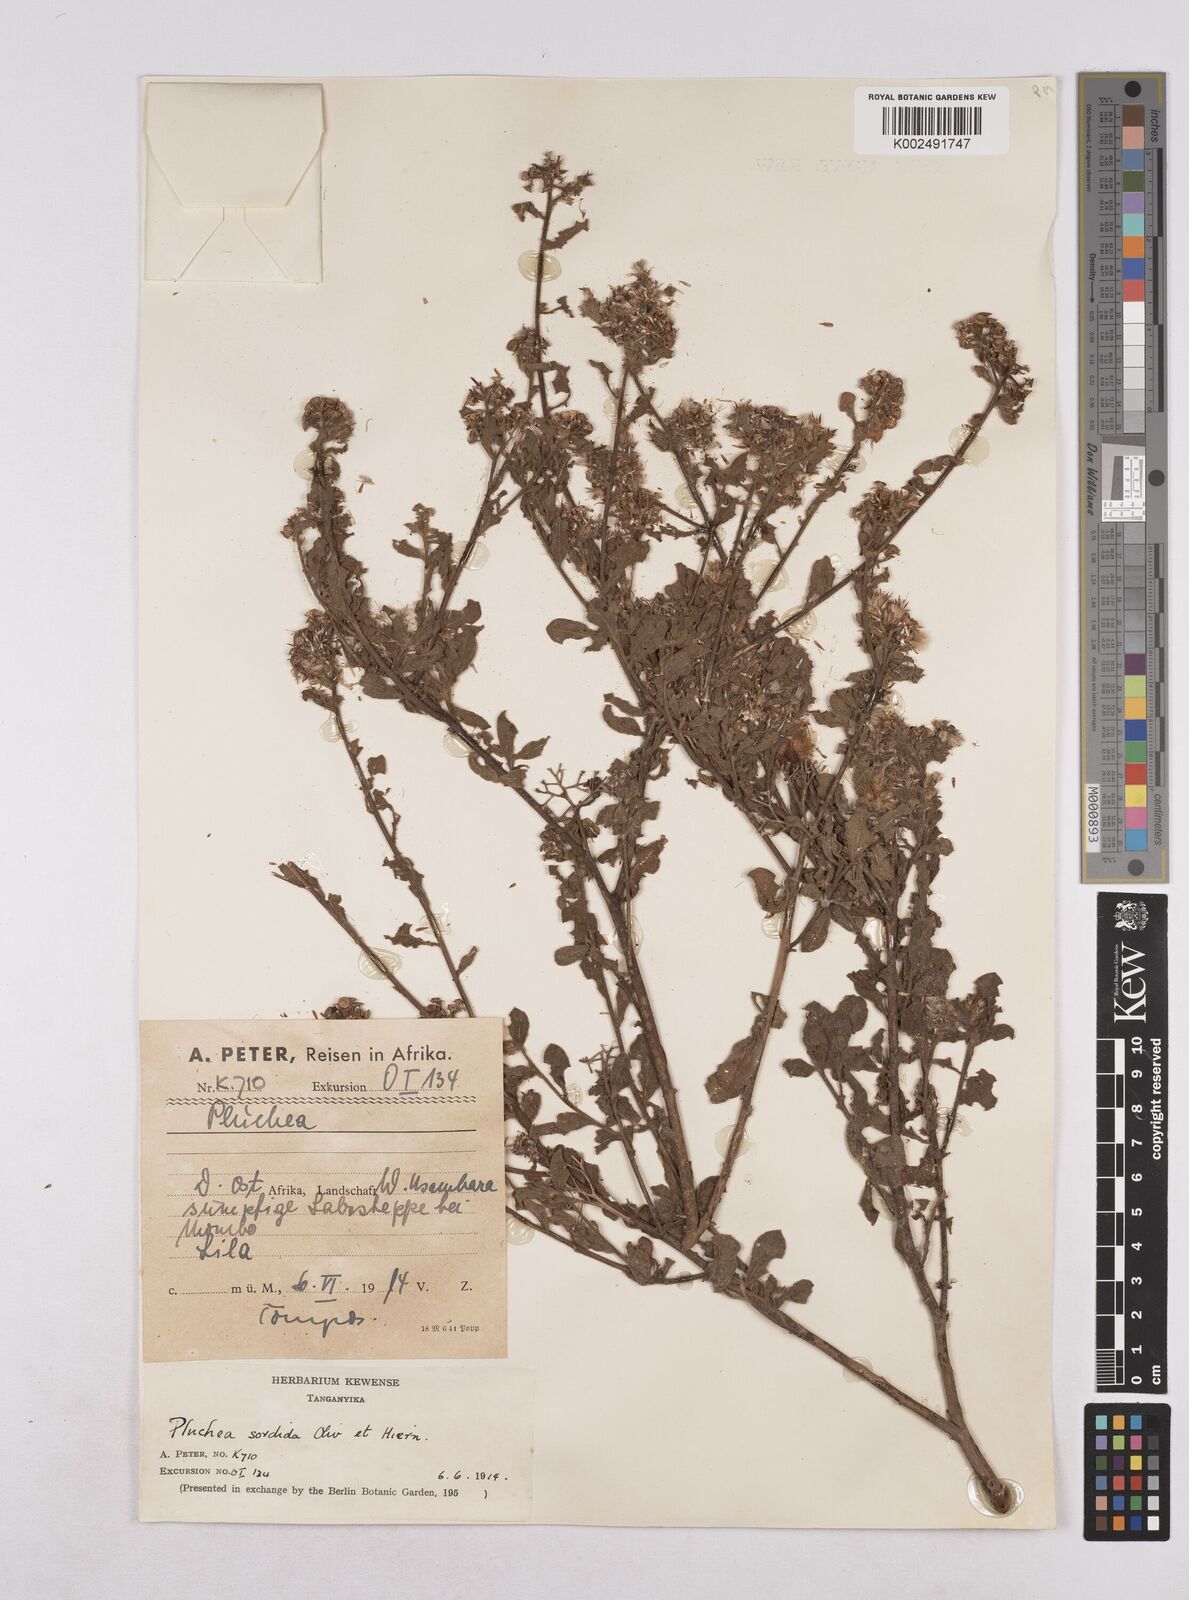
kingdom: Plantae
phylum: Tracheophyta
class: Magnoliopsida
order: Asterales
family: Asteraceae
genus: Pluchea
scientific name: Pluchea sordida
